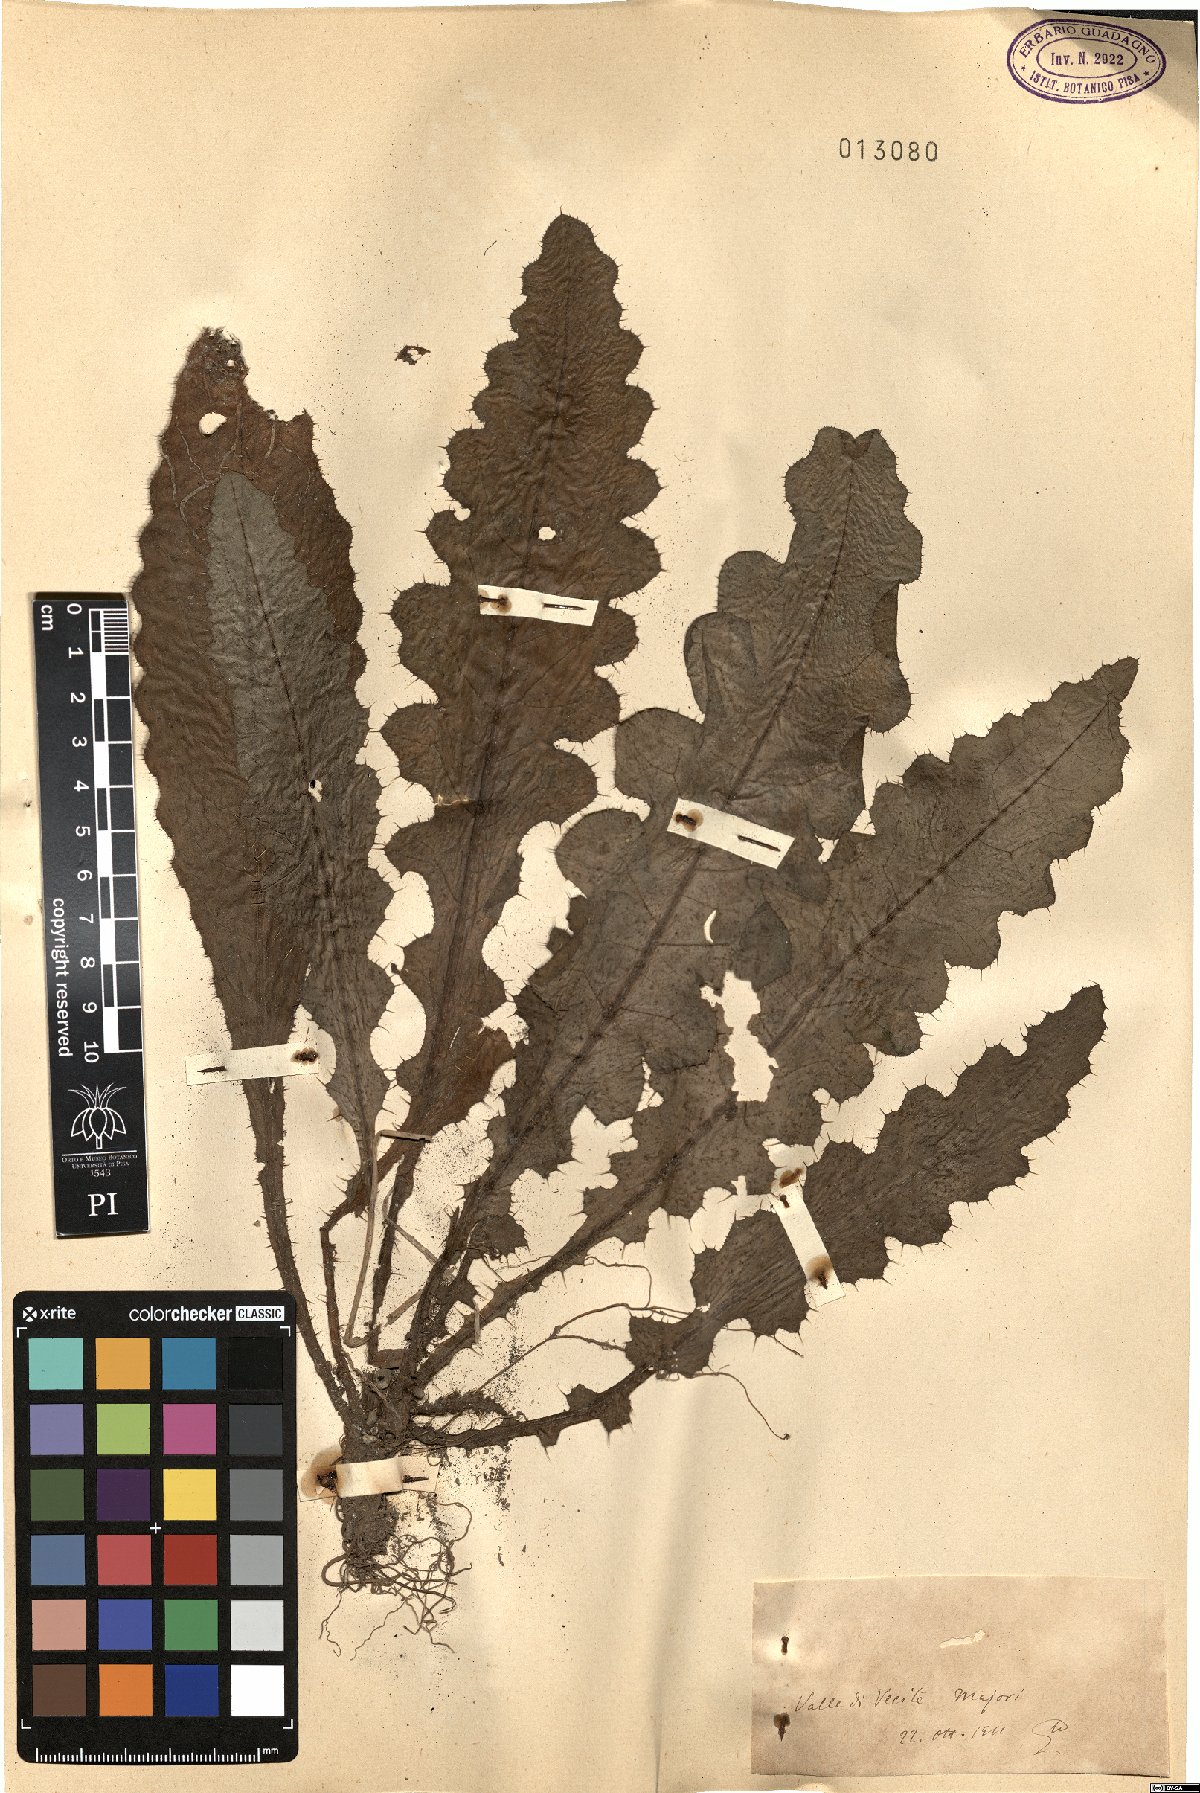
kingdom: Plantae
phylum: Tracheophyta
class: Magnoliopsida
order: Asterales
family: Asteraceae
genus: Cirsium
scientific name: Cirsium
